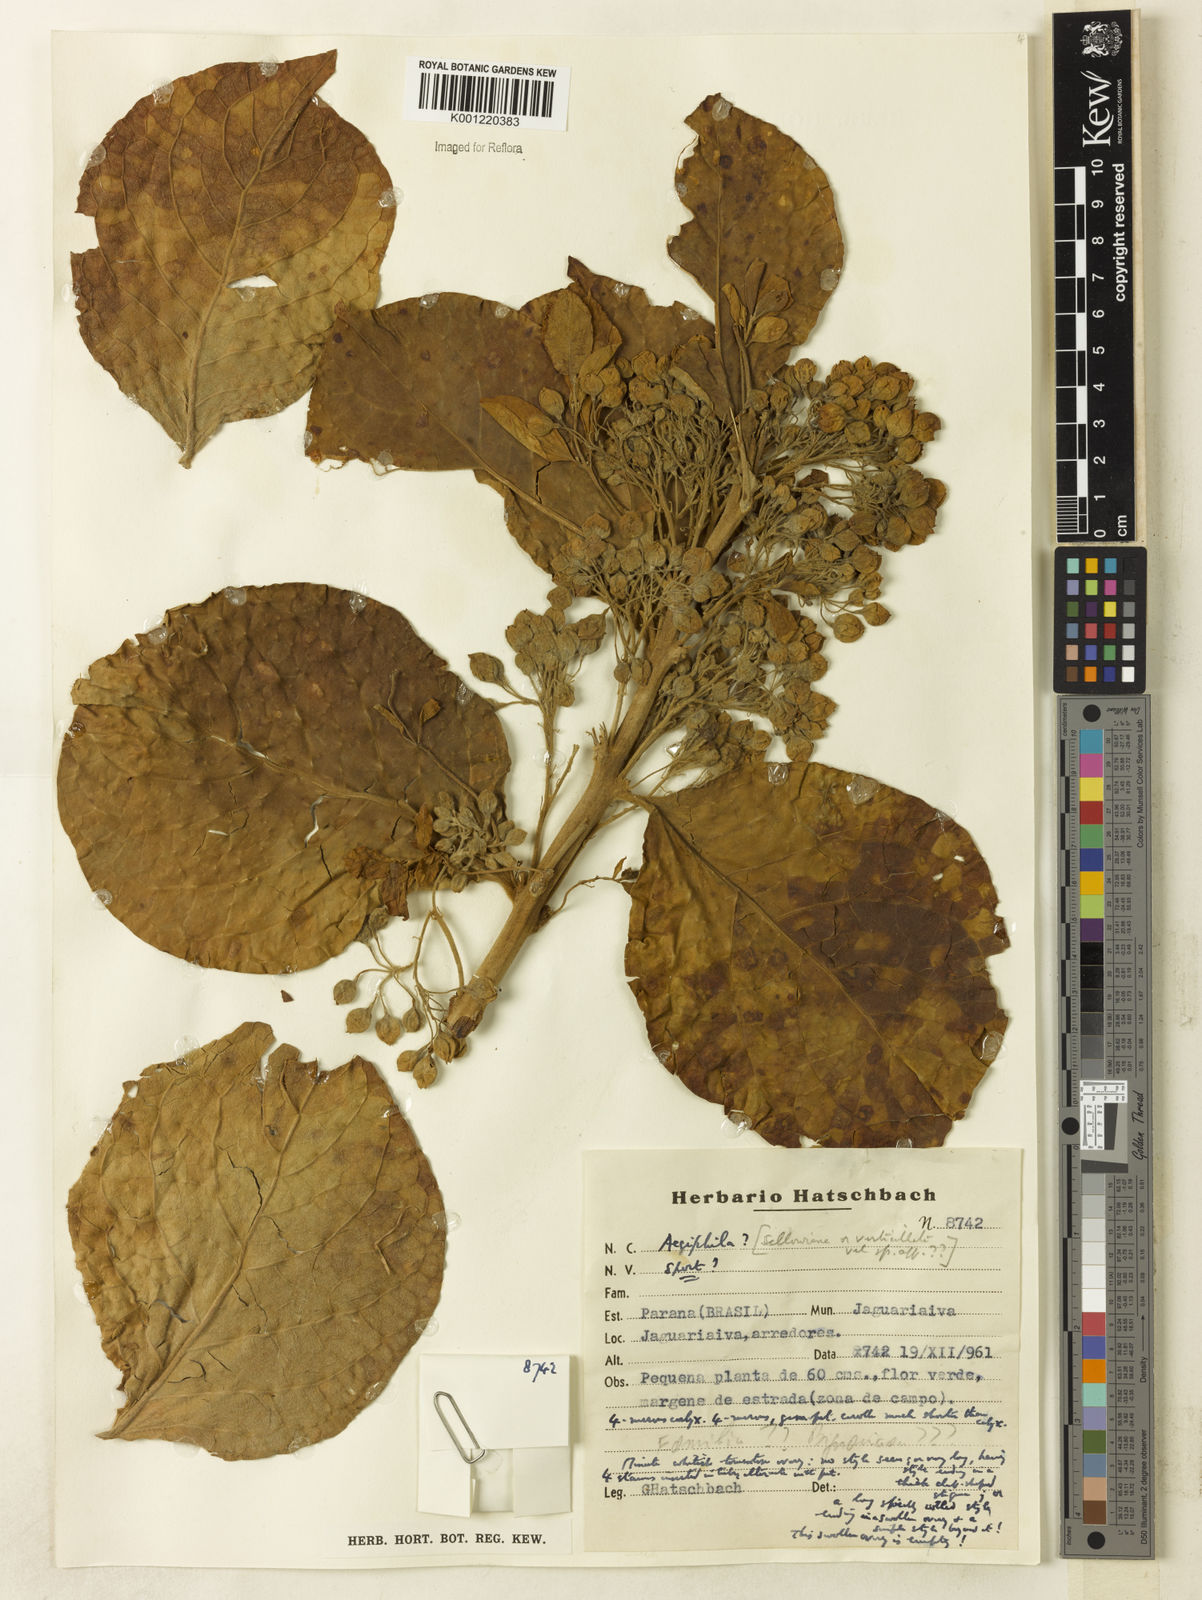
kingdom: Plantae
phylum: Tracheophyta
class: Magnoliopsida
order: Lamiales
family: Lamiaceae
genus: Aegiphila
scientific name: Aegiphila
